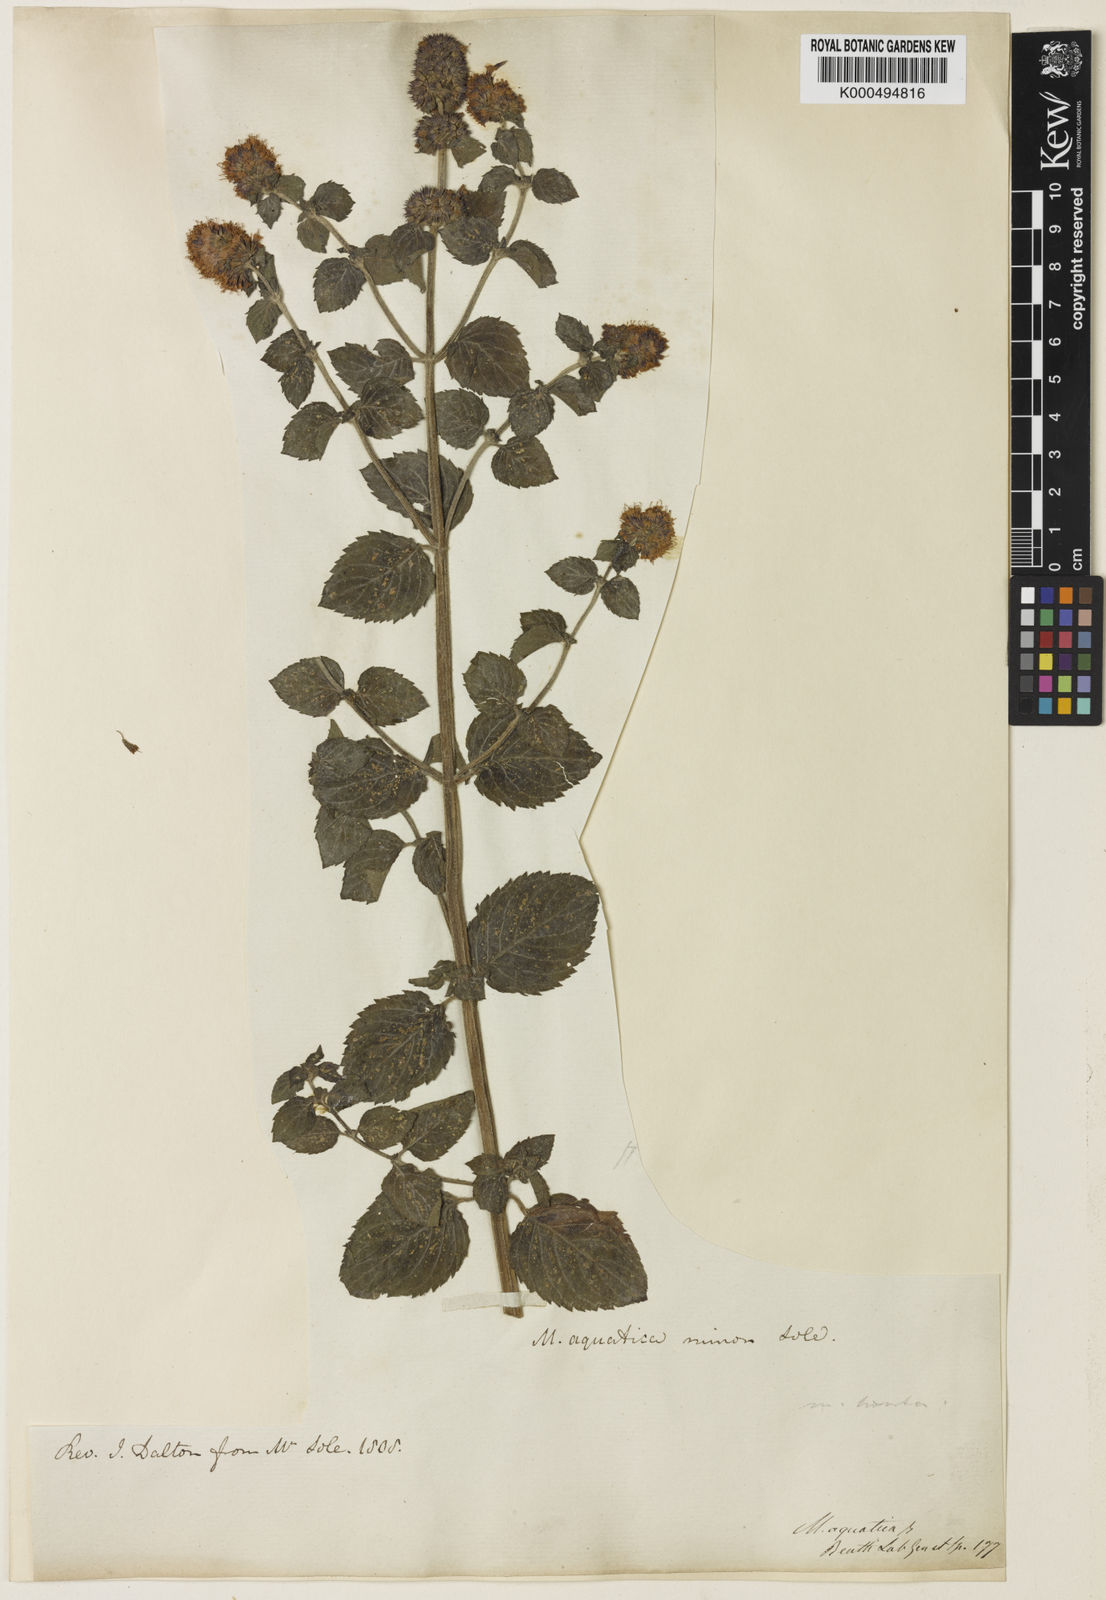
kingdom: Plantae
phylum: Tracheophyta
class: Magnoliopsida
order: Lamiales
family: Lamiaceae
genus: Mentha
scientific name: Mentha aquatica
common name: Water mint
